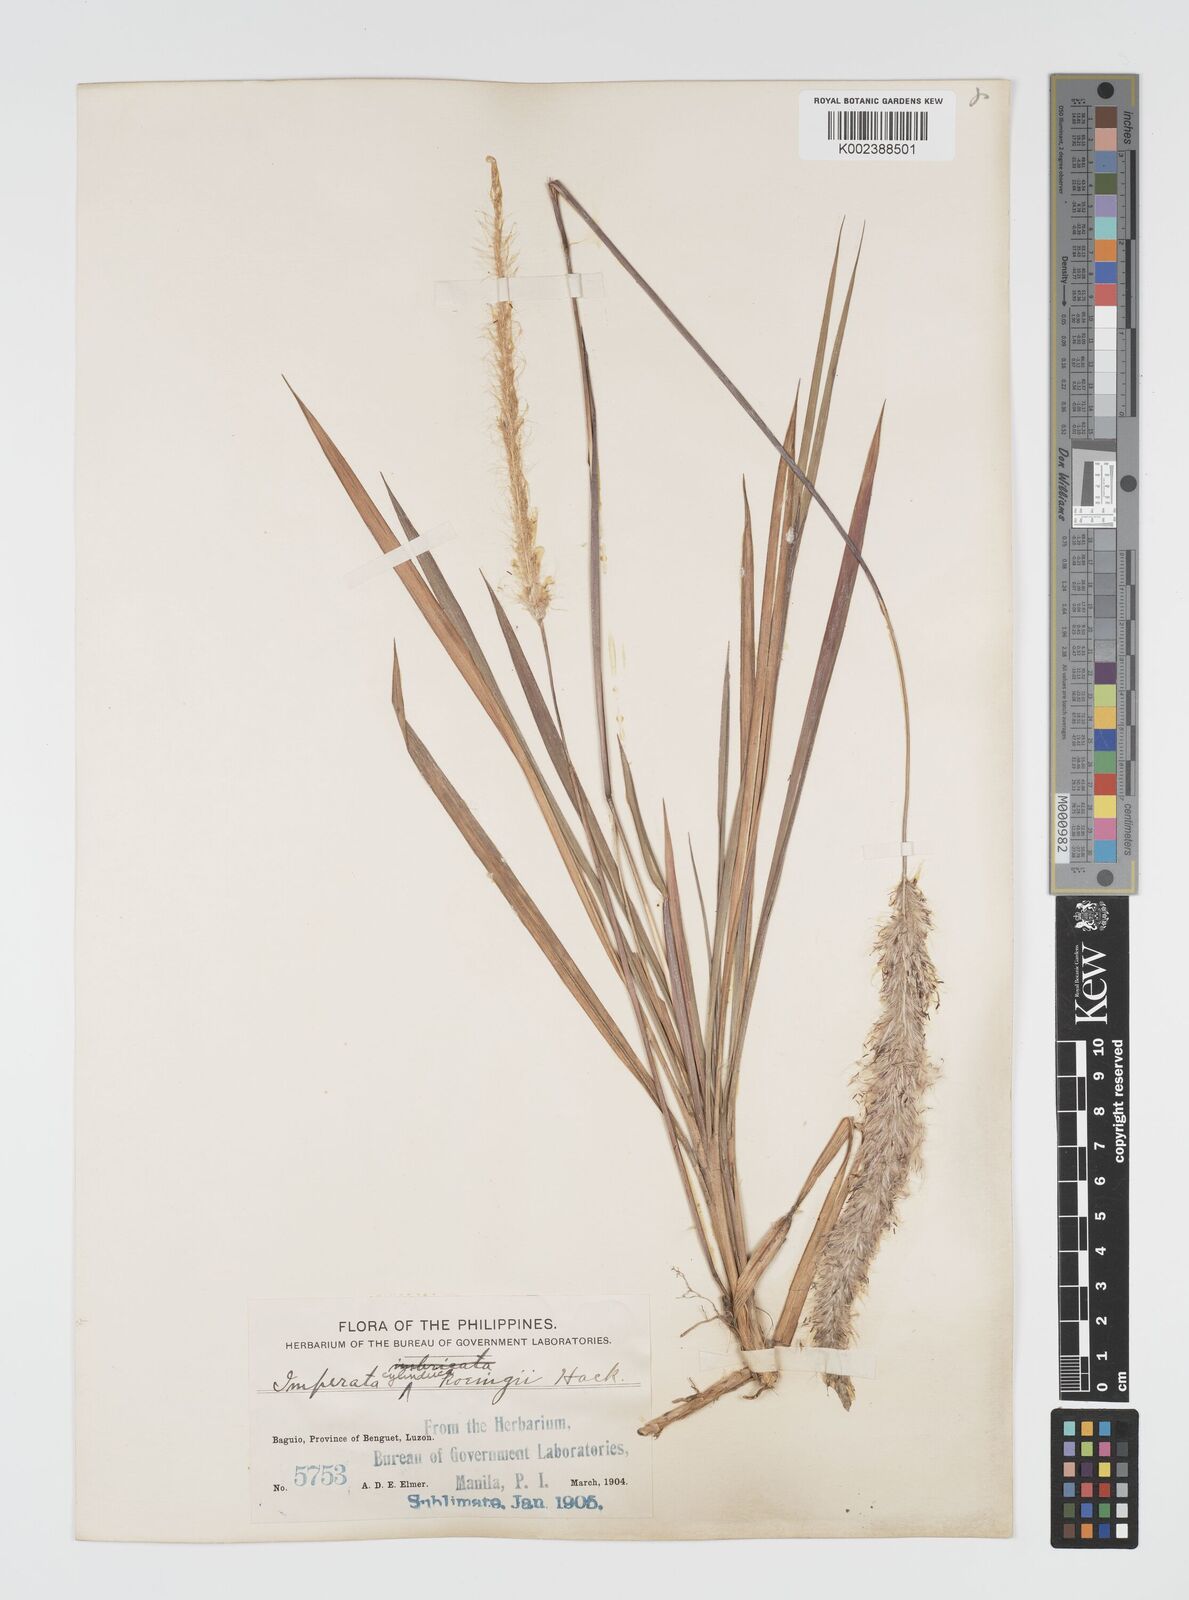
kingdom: Plantae
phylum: Tracheophyta
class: Liliopsida
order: Poales
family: Poaceae
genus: Imperata
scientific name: Imperata cylindrica
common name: Cogongrass
